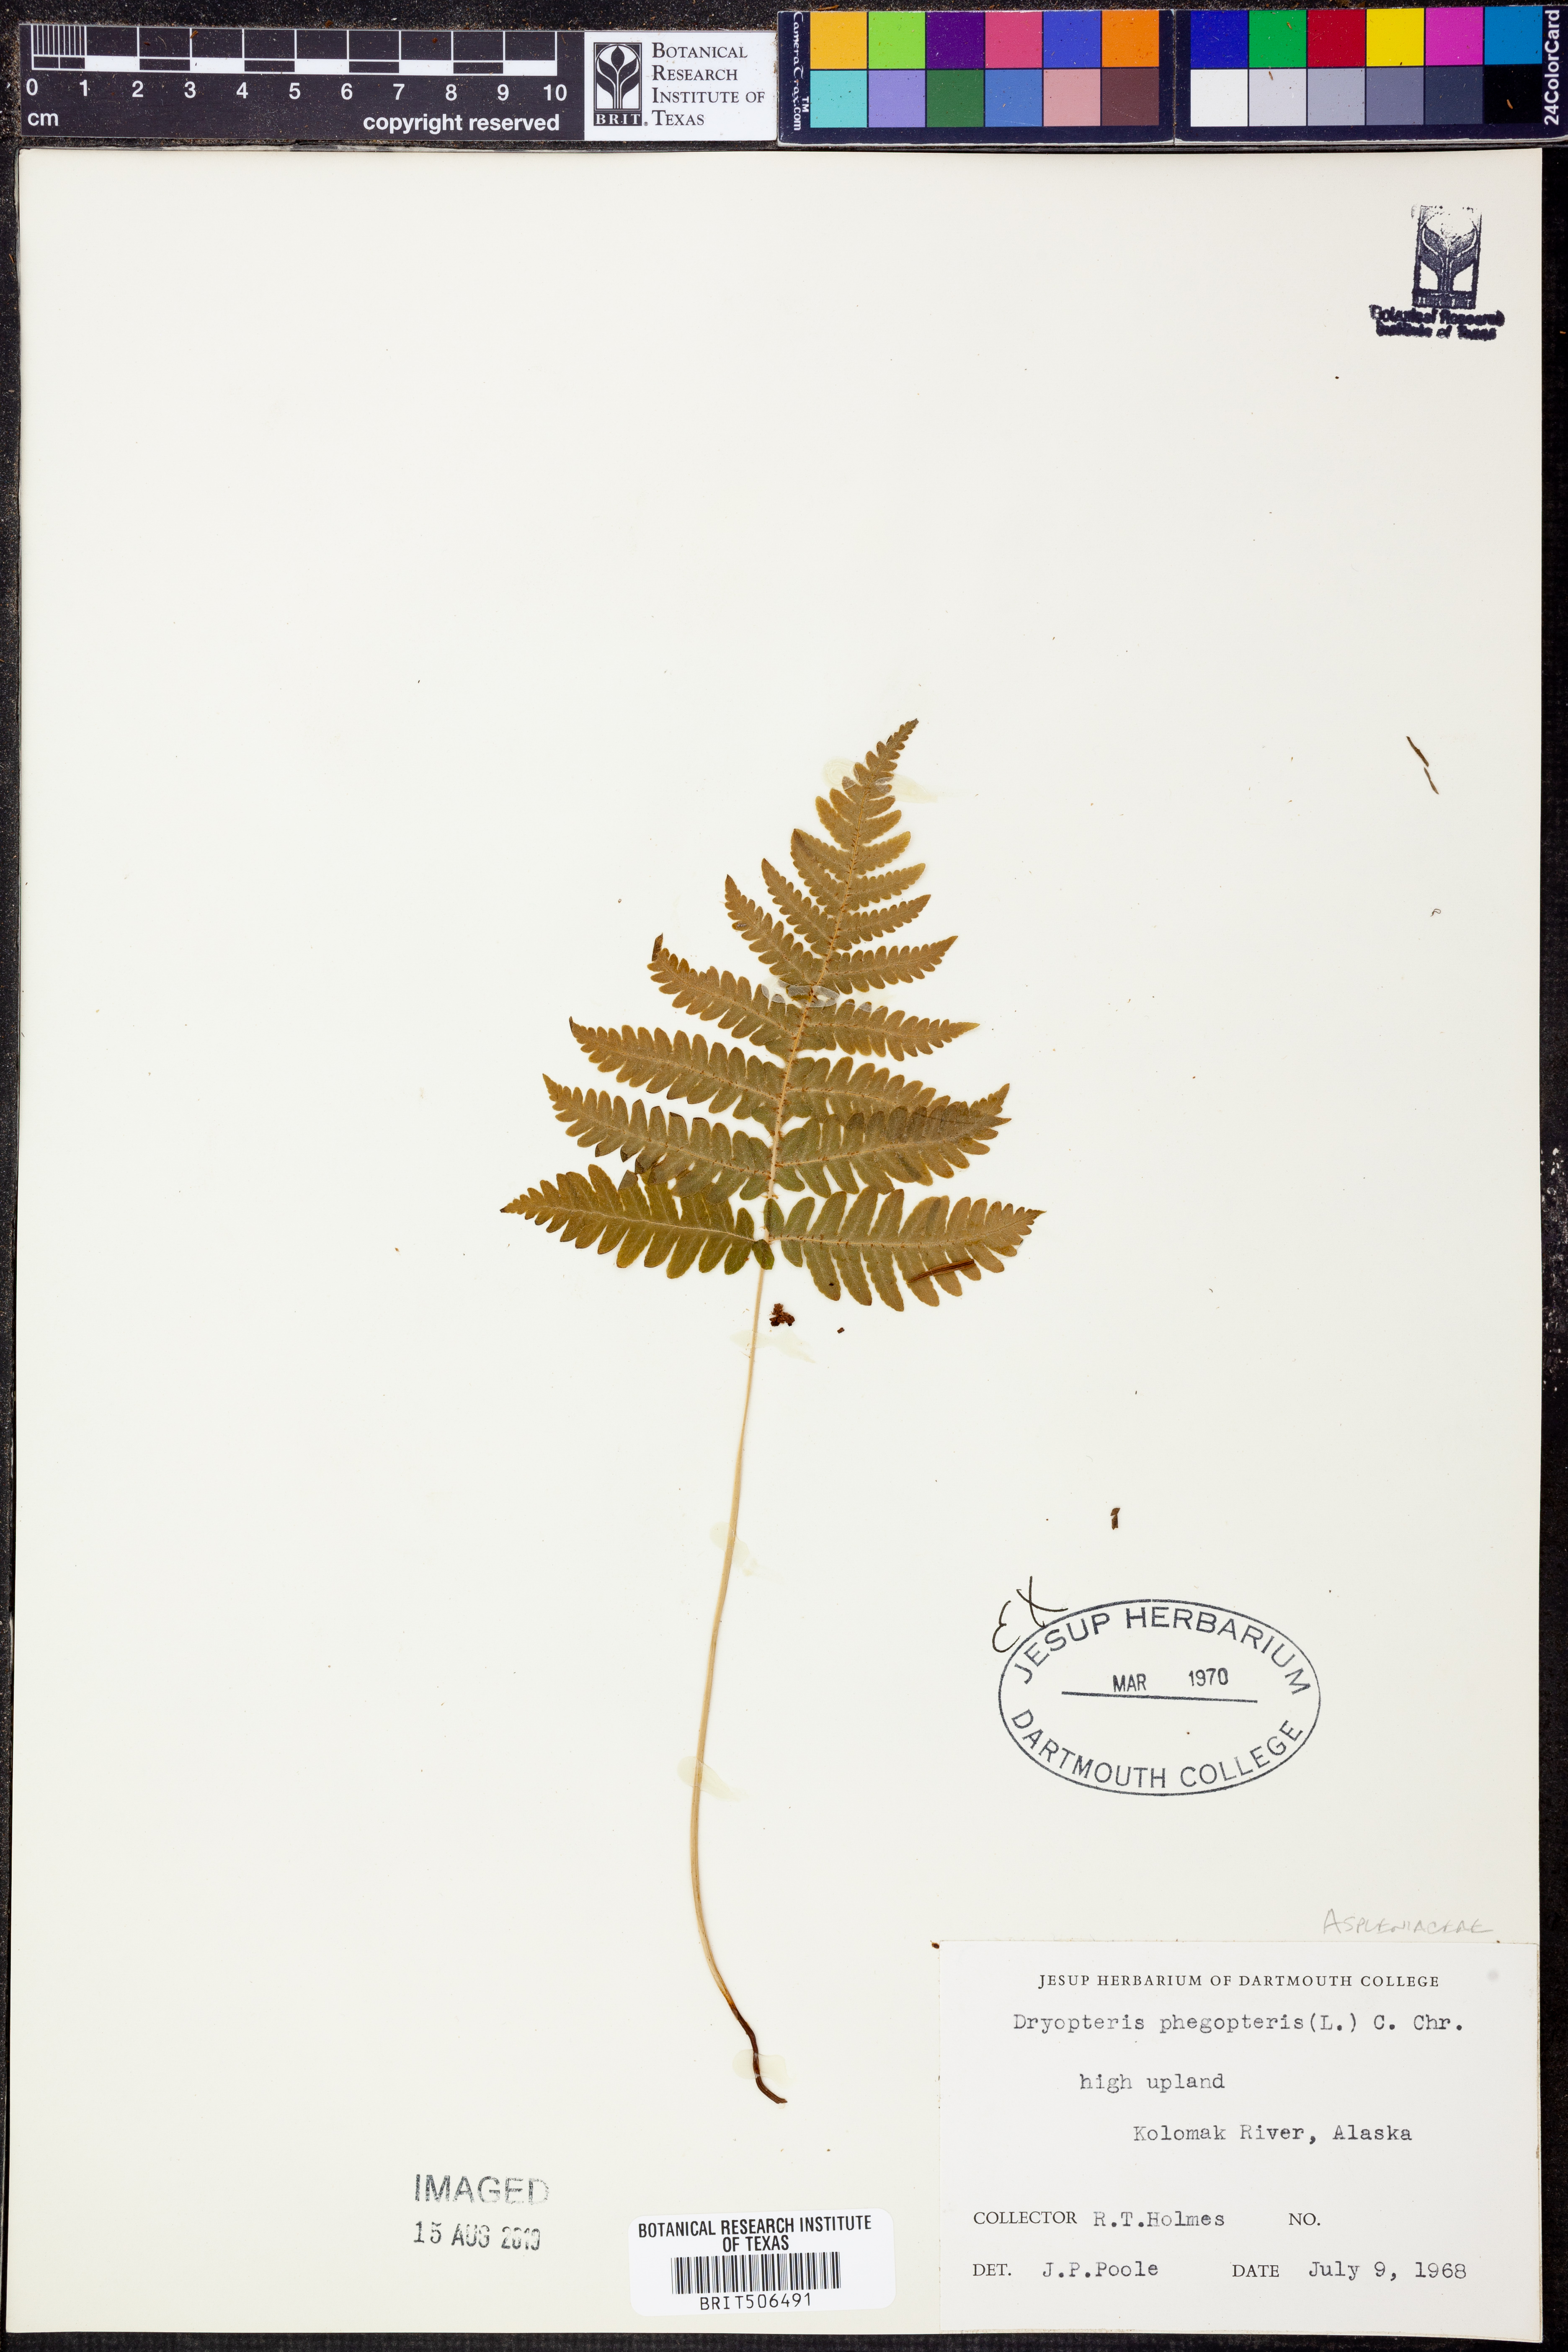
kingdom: Plantae
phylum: Tracheophyta
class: Polypodiopsida
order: Polypodiales
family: Thelypteridaceae
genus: Phegopteris
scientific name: Phegopteris connectilis
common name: Beech fern
